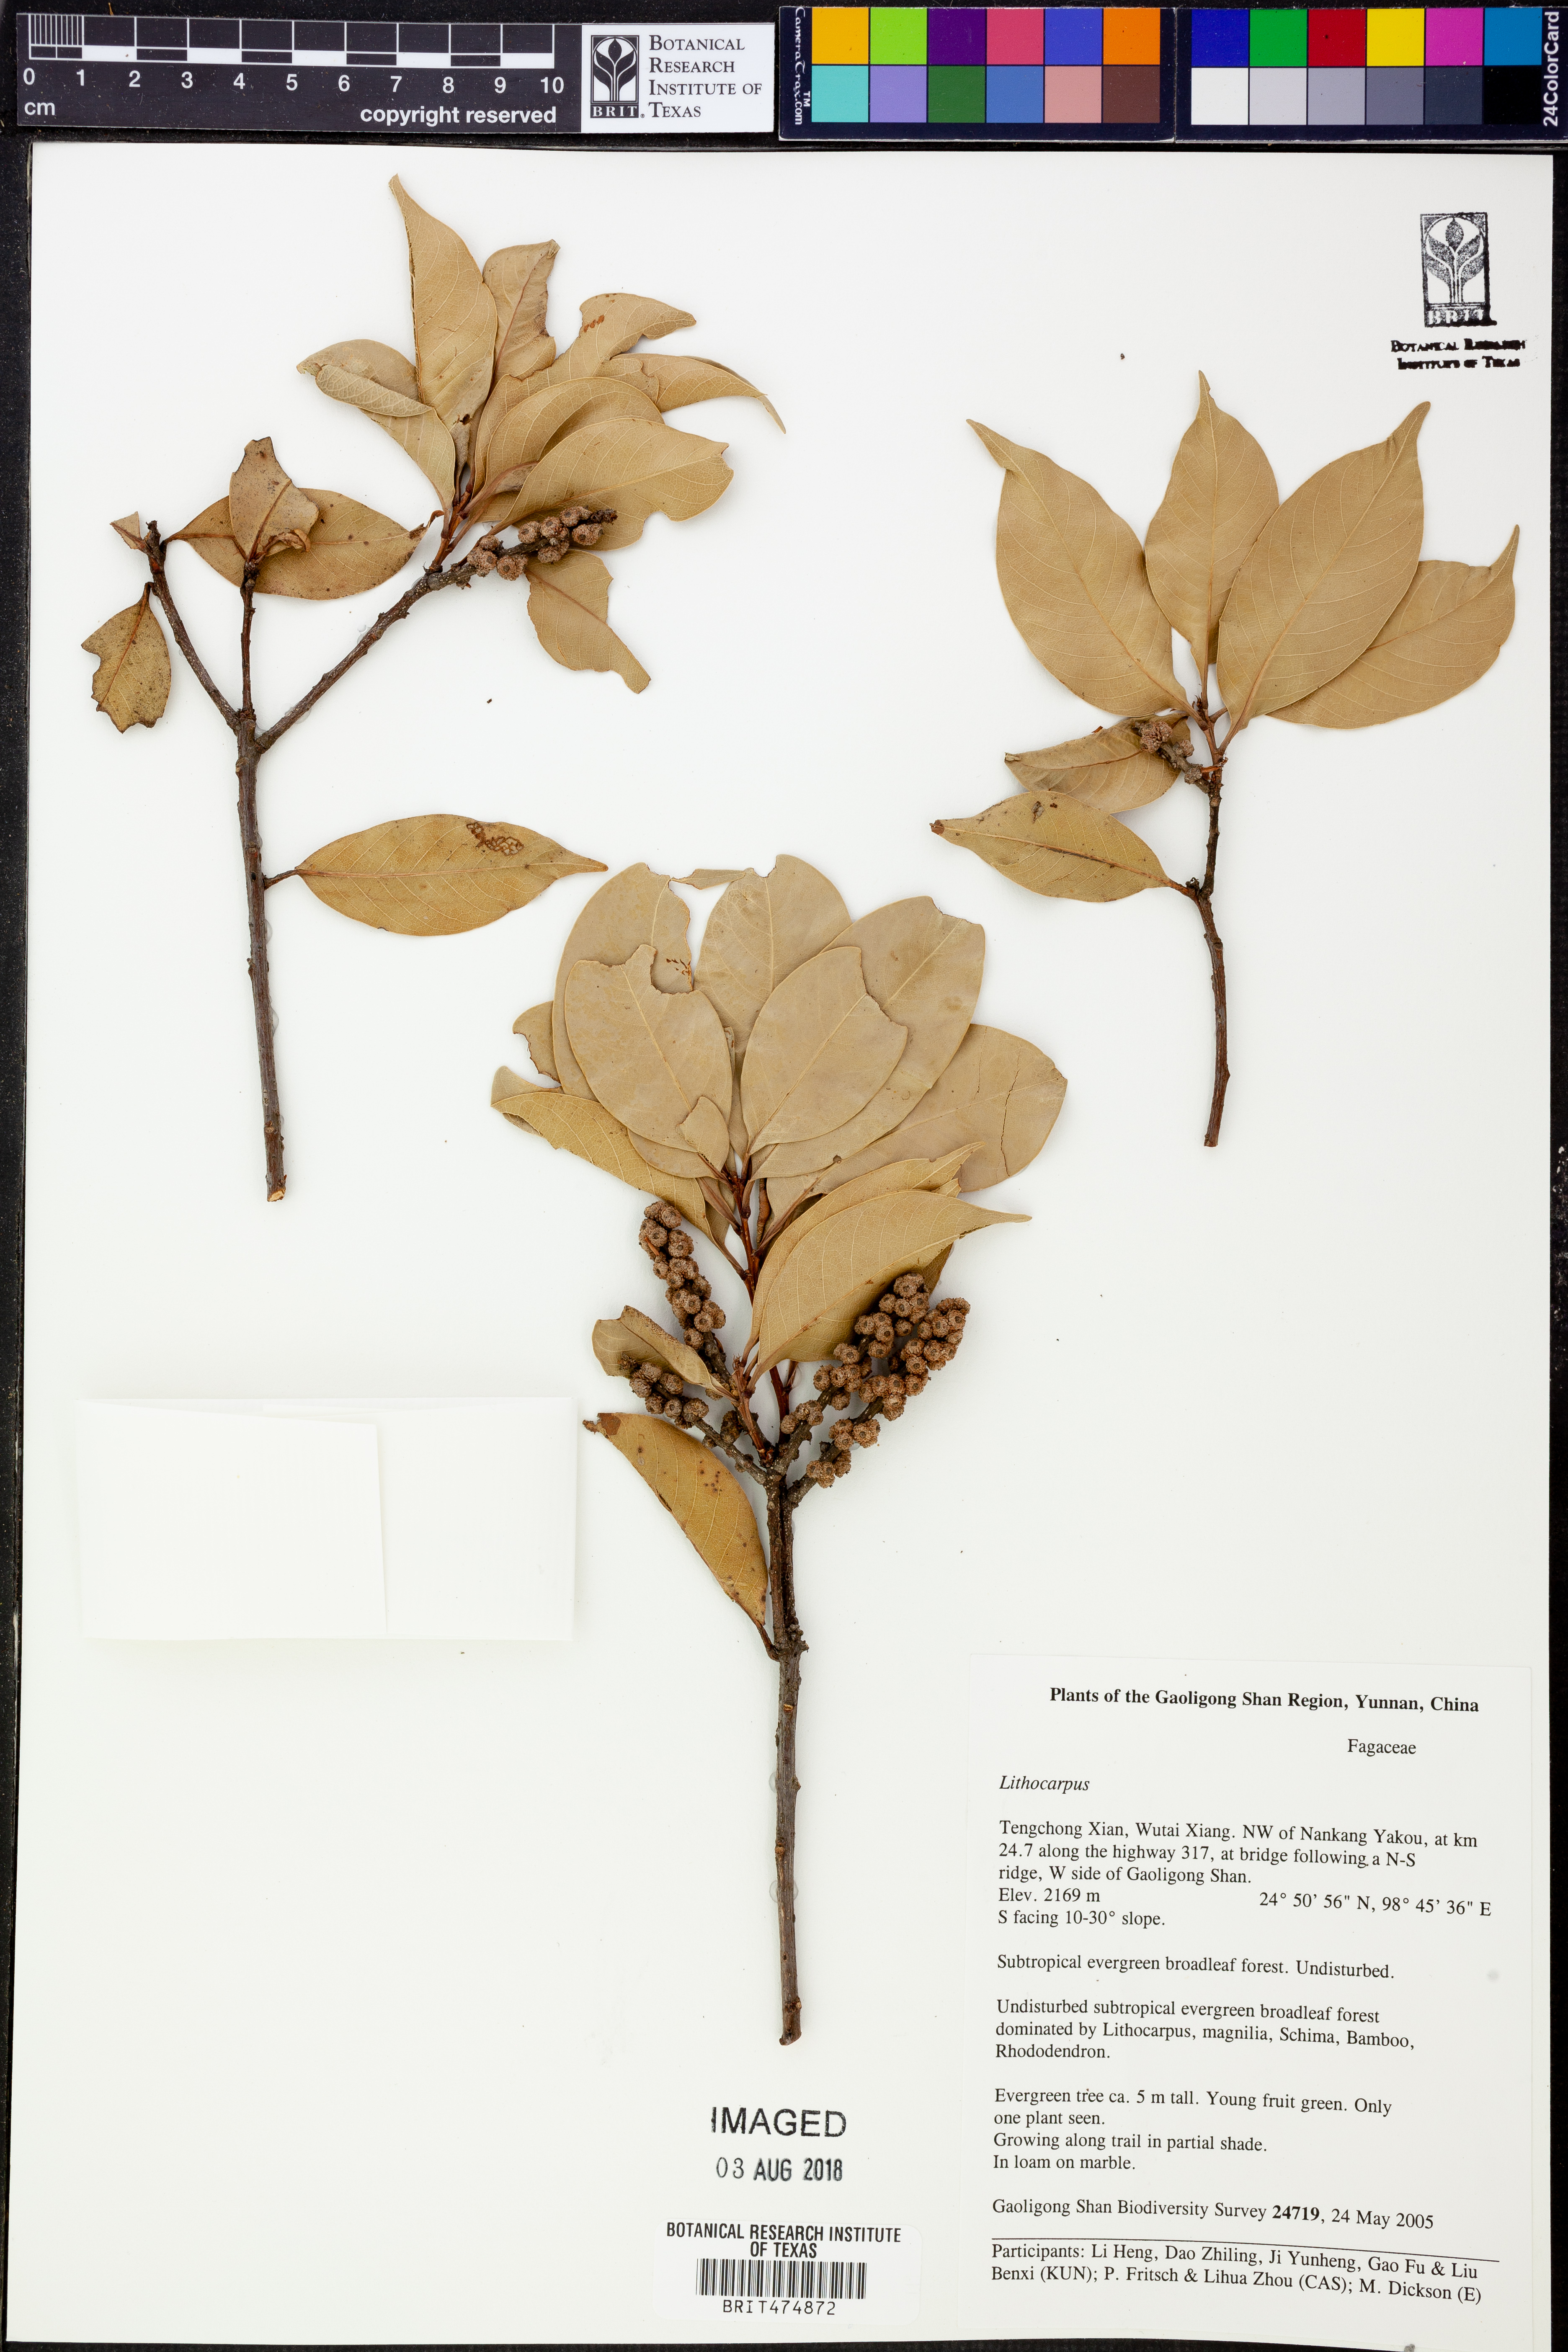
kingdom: Plantae
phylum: Tracheophyta
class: Magnoliopsida
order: Fagales
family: Fagaceae
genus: Lithocarpus
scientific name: Lithocarpus
